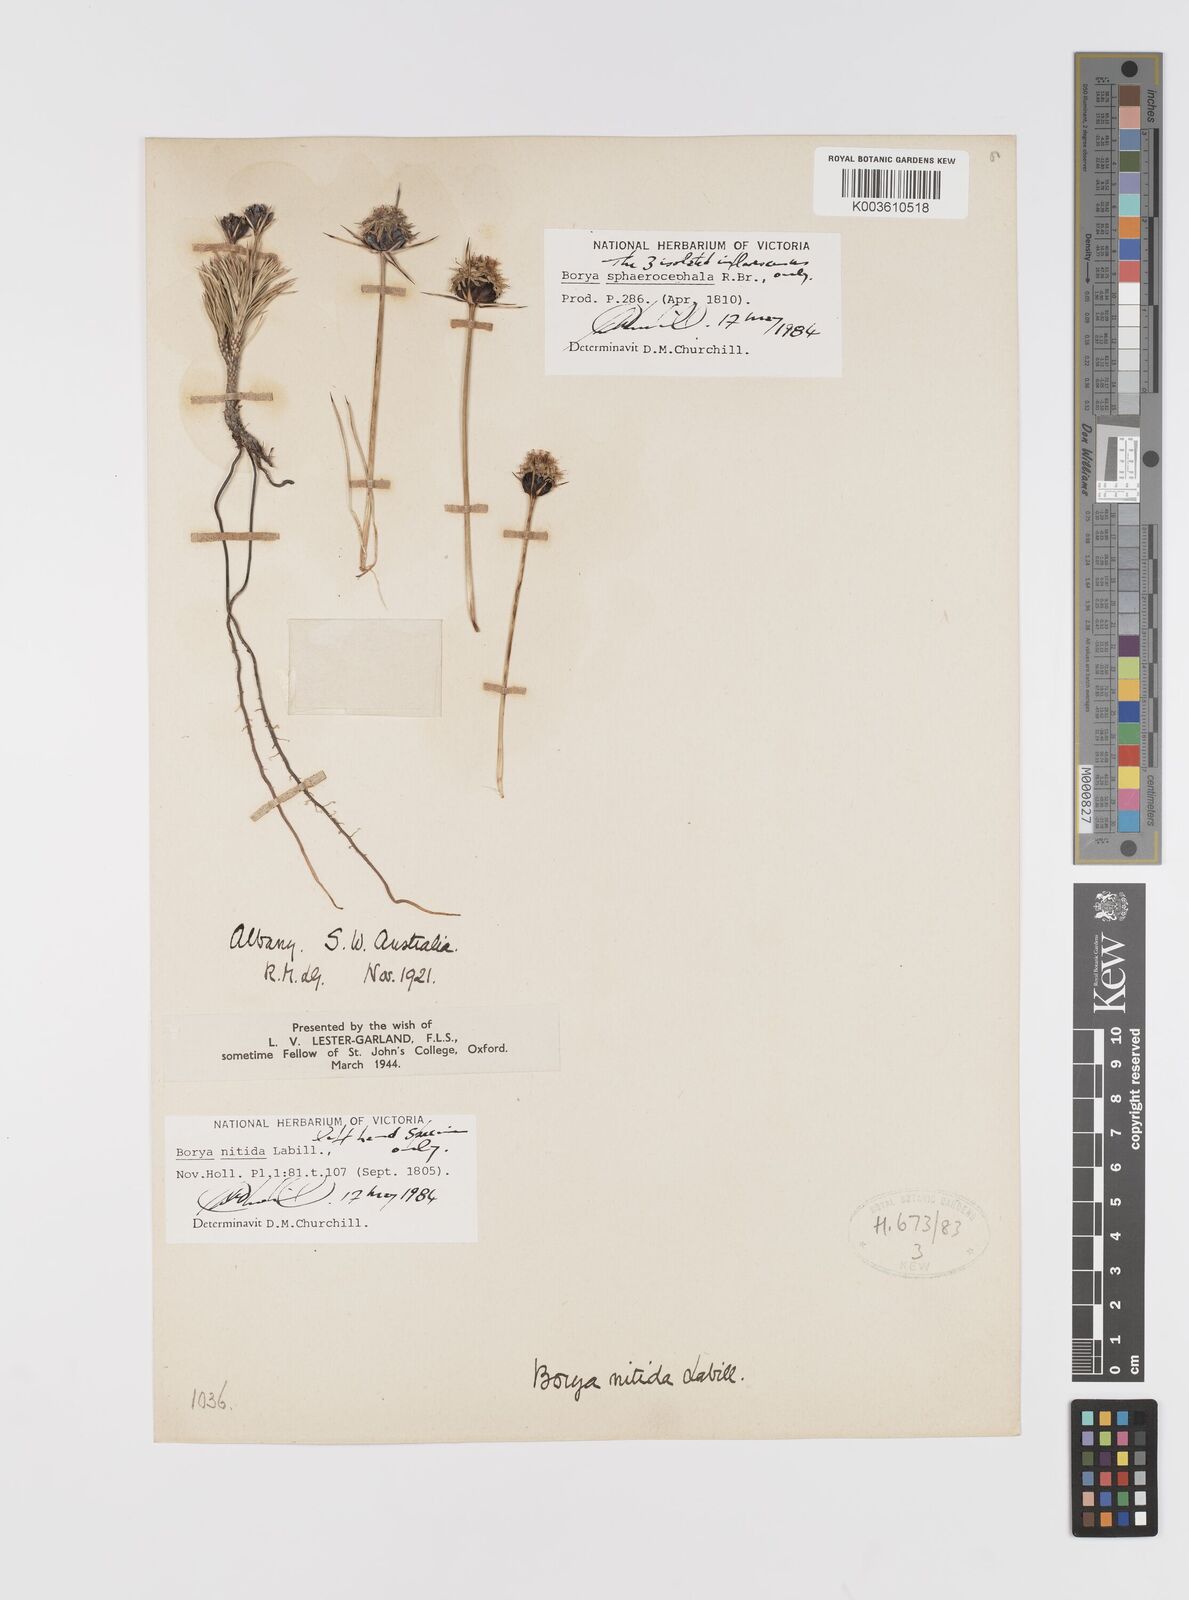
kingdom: Plantae
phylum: Tracheophyta
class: Liliopsida
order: Asparagales
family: Boryaceae
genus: Borya
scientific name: Borya nitida
